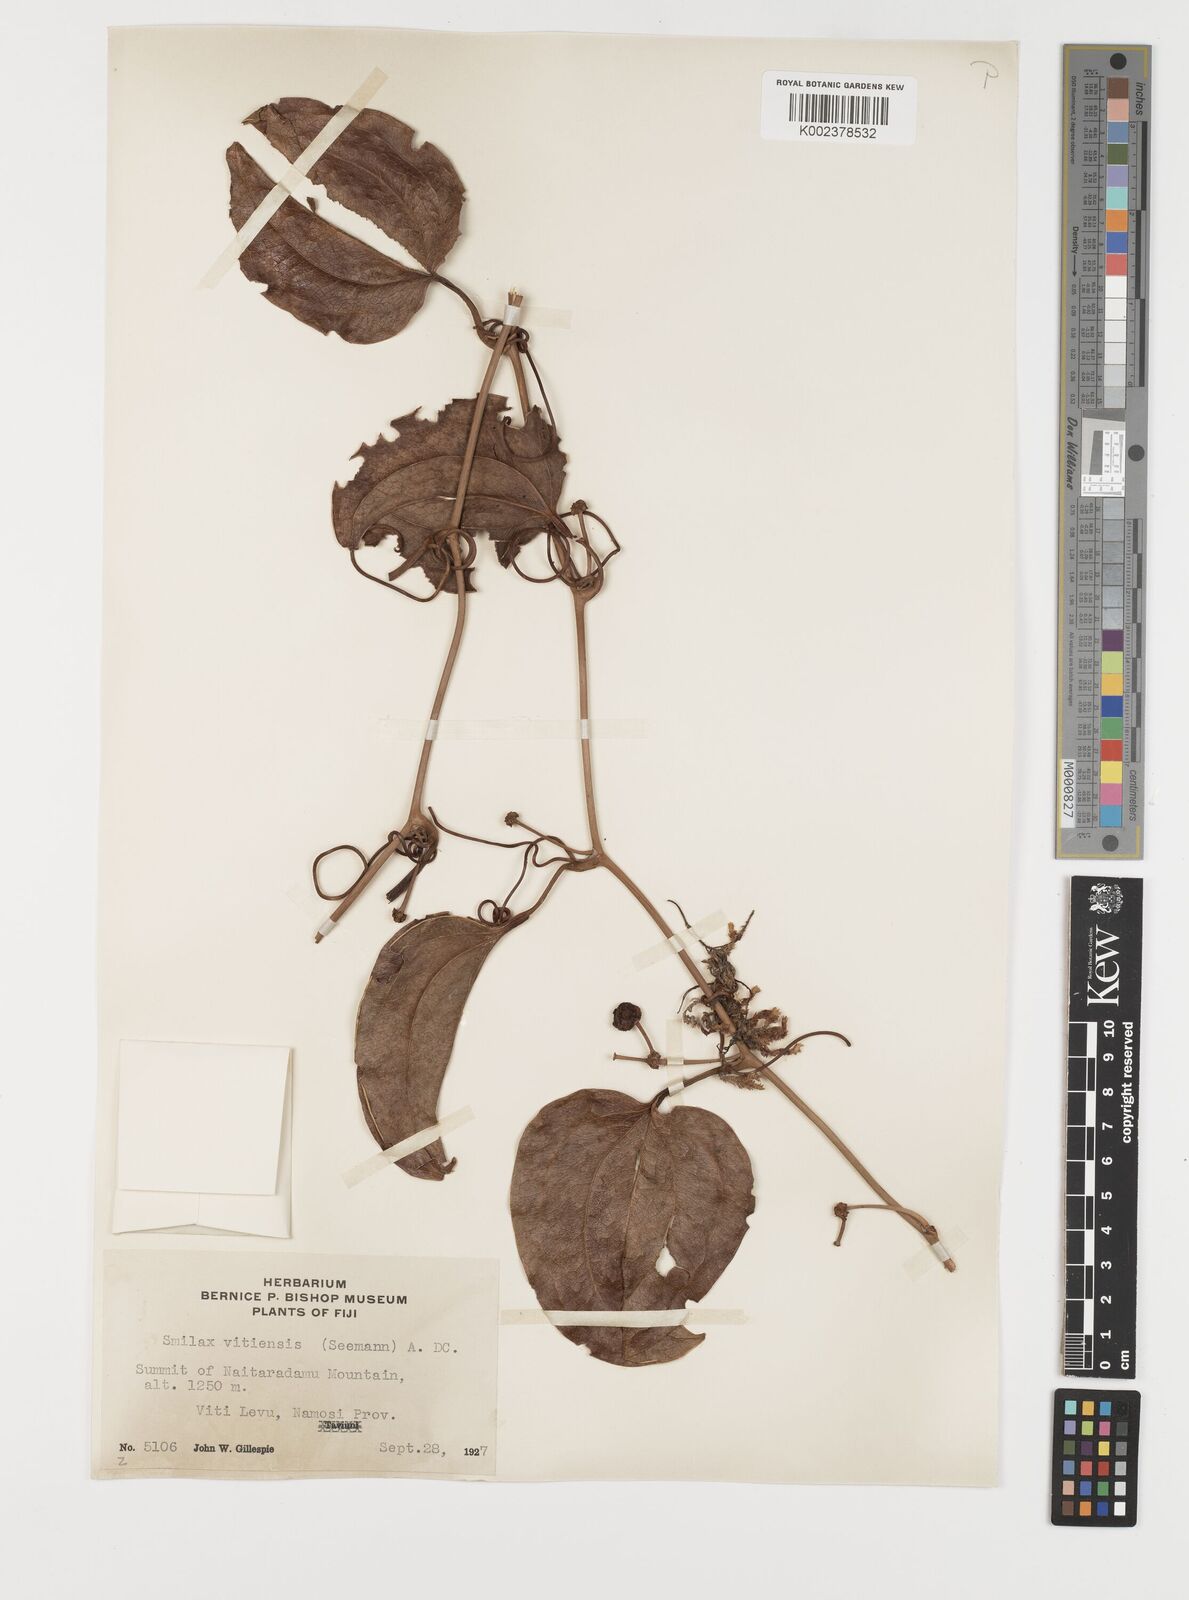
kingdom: Plantae
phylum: Tracheophyta
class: Liliopsida
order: Liliales
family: Smilacaceae
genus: Smilax
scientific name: Smilax vitiensis
